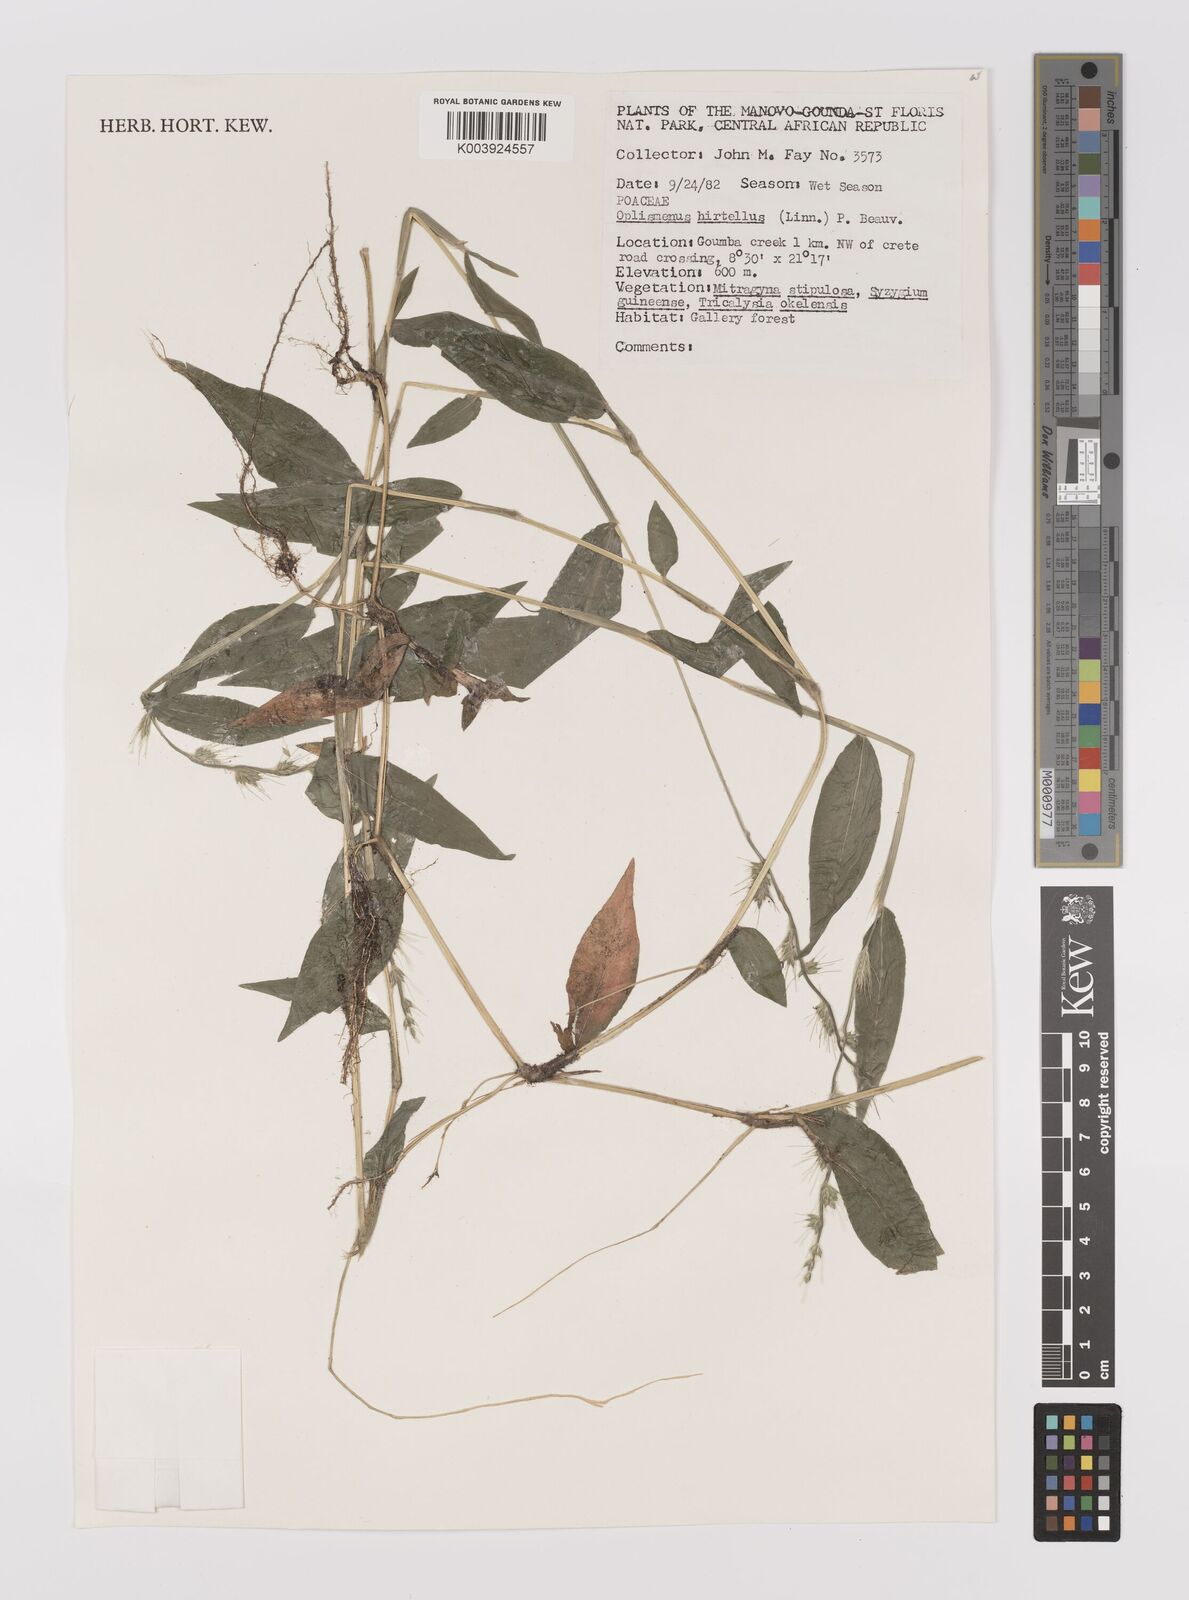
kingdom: Plantae
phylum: Tracheophyta
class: Liliopsida
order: Poales
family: Poaceae
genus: Oplismenus
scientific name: Oplismenus hirtellus
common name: Basketgrass
